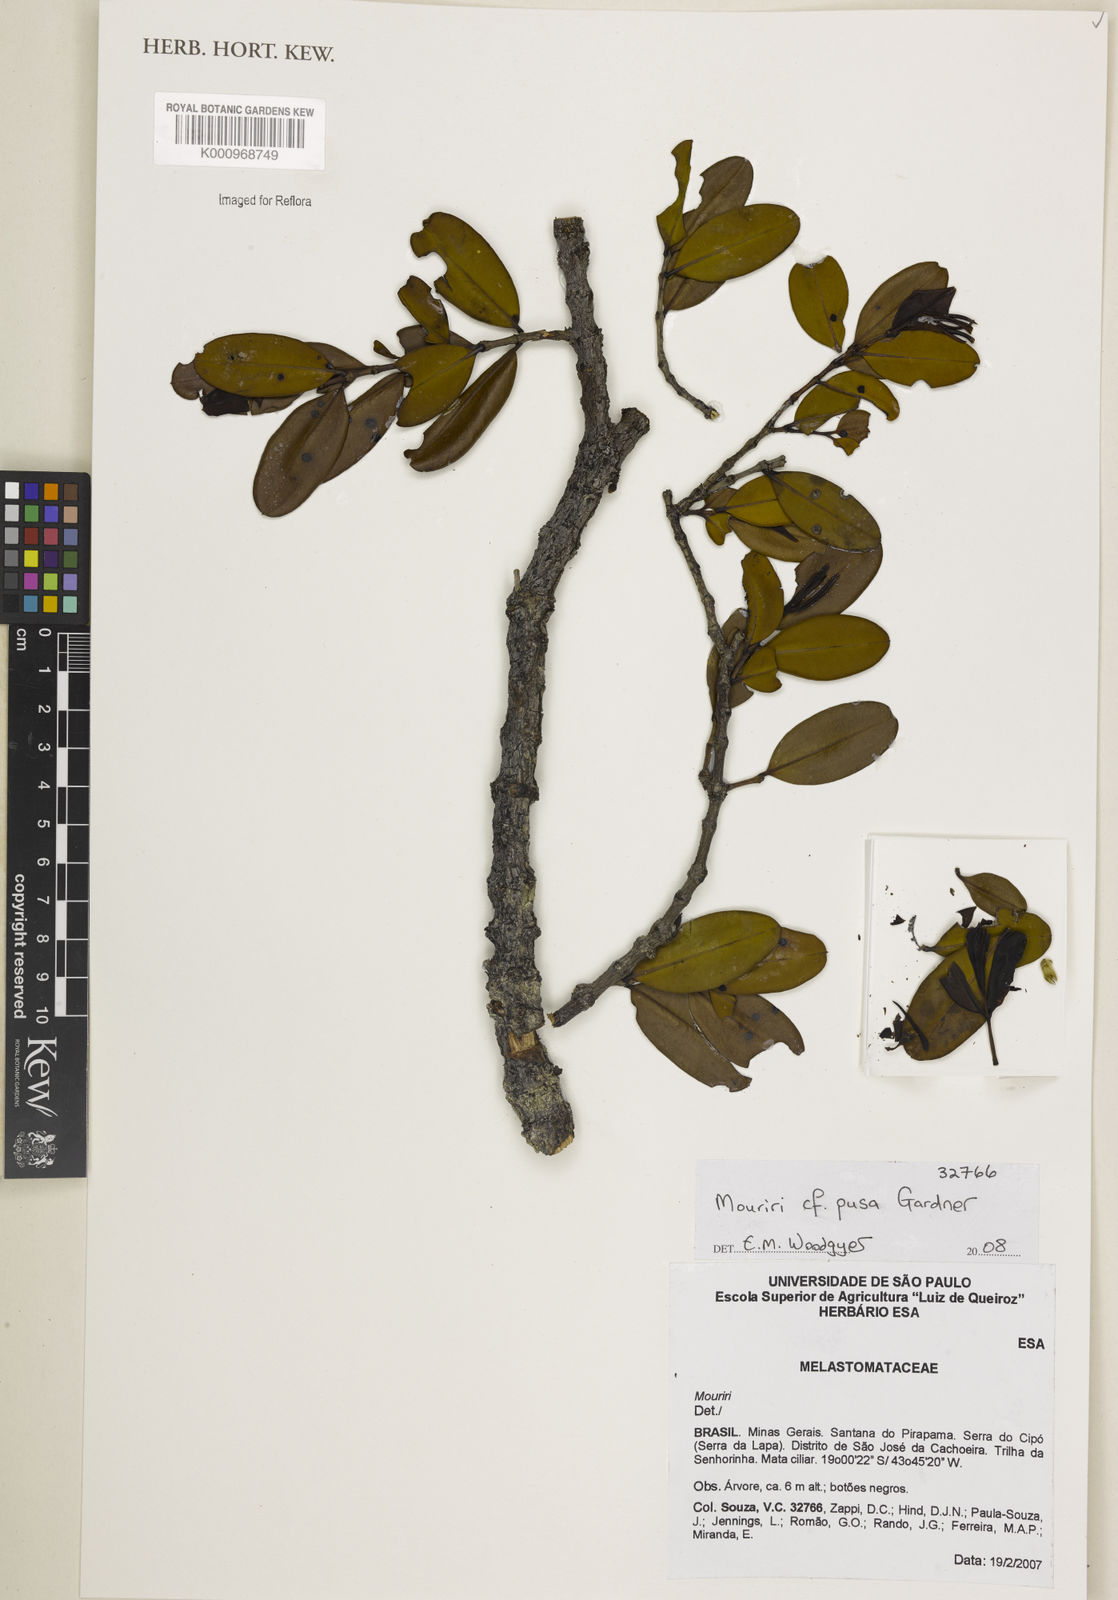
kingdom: Plantae
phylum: Tracheophyta
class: Magnoliopsida
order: Myrtales
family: Melastomataceae
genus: Mouriri
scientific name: Mouriri pusa
